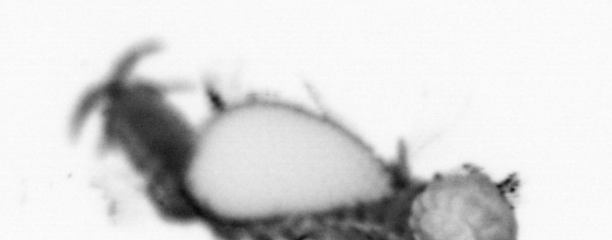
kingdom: Animalia
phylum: Annelida
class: Polychaeta
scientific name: Polychaeta
